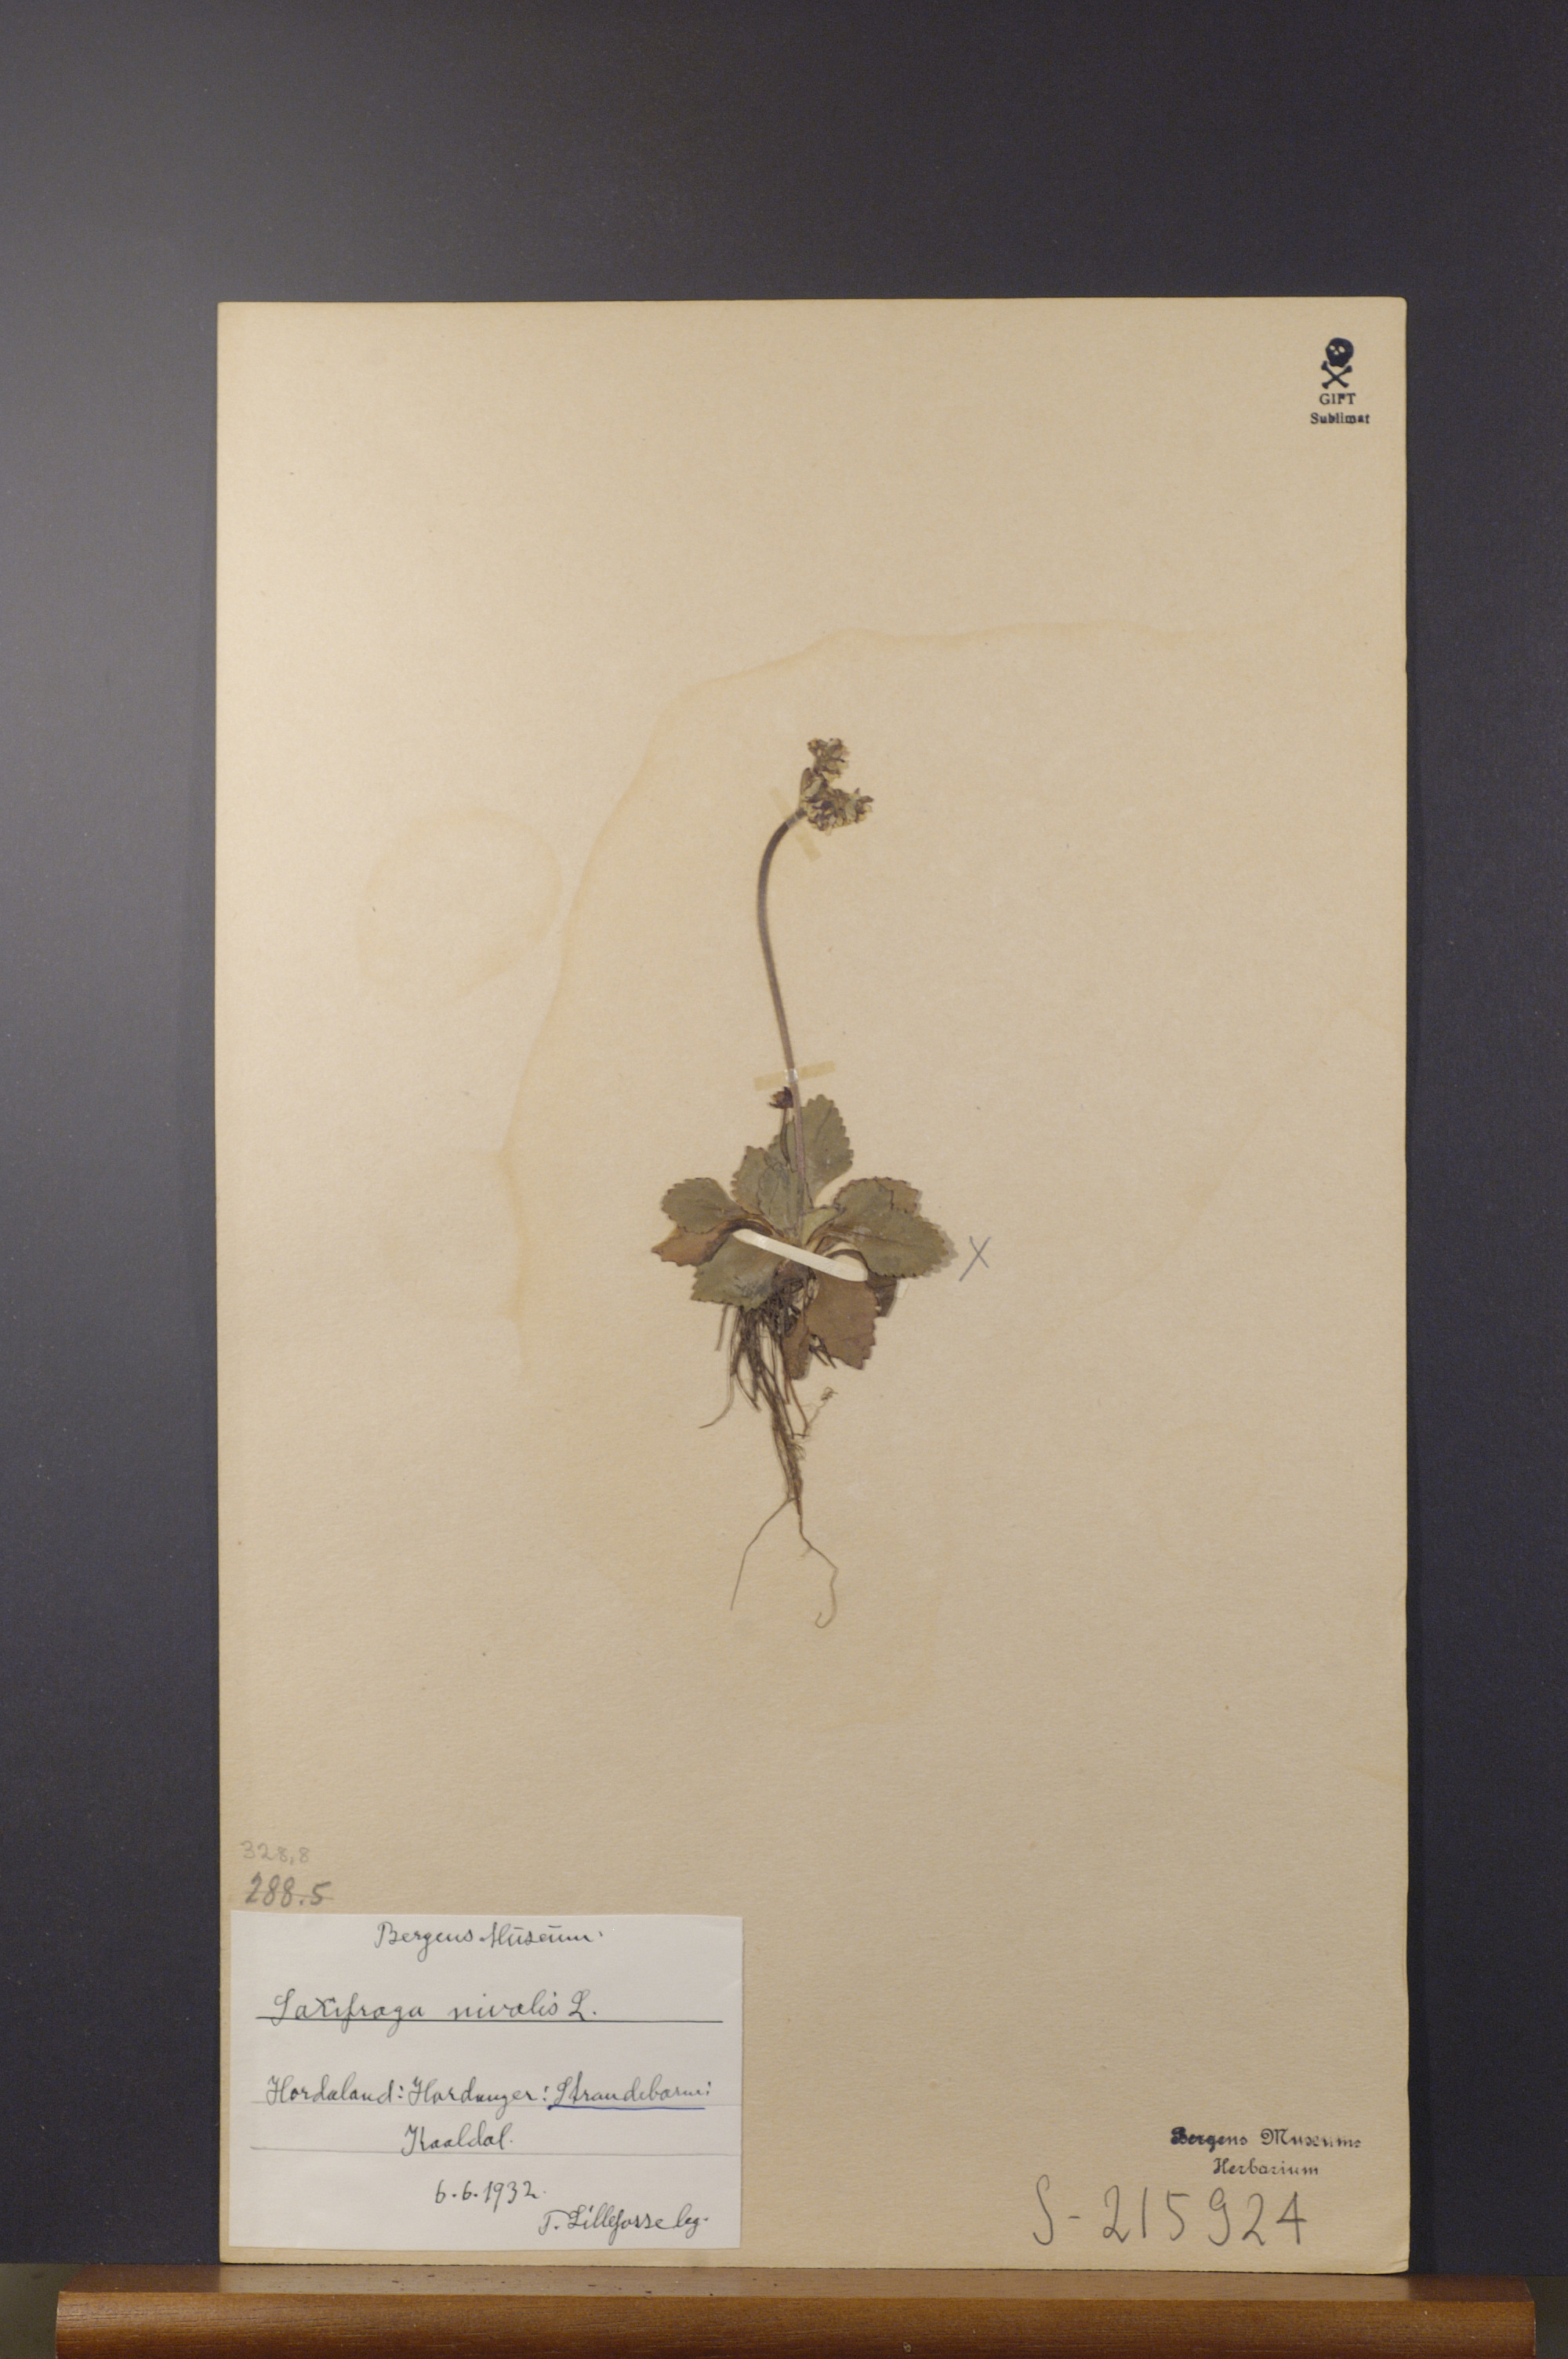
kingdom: Plantae
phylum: Tracheophyta
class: Magnoliopsida
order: Saxifragales
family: Saxifragaceae
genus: Micranthes
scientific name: Micranthes nivalis
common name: Alpine saxifrage
